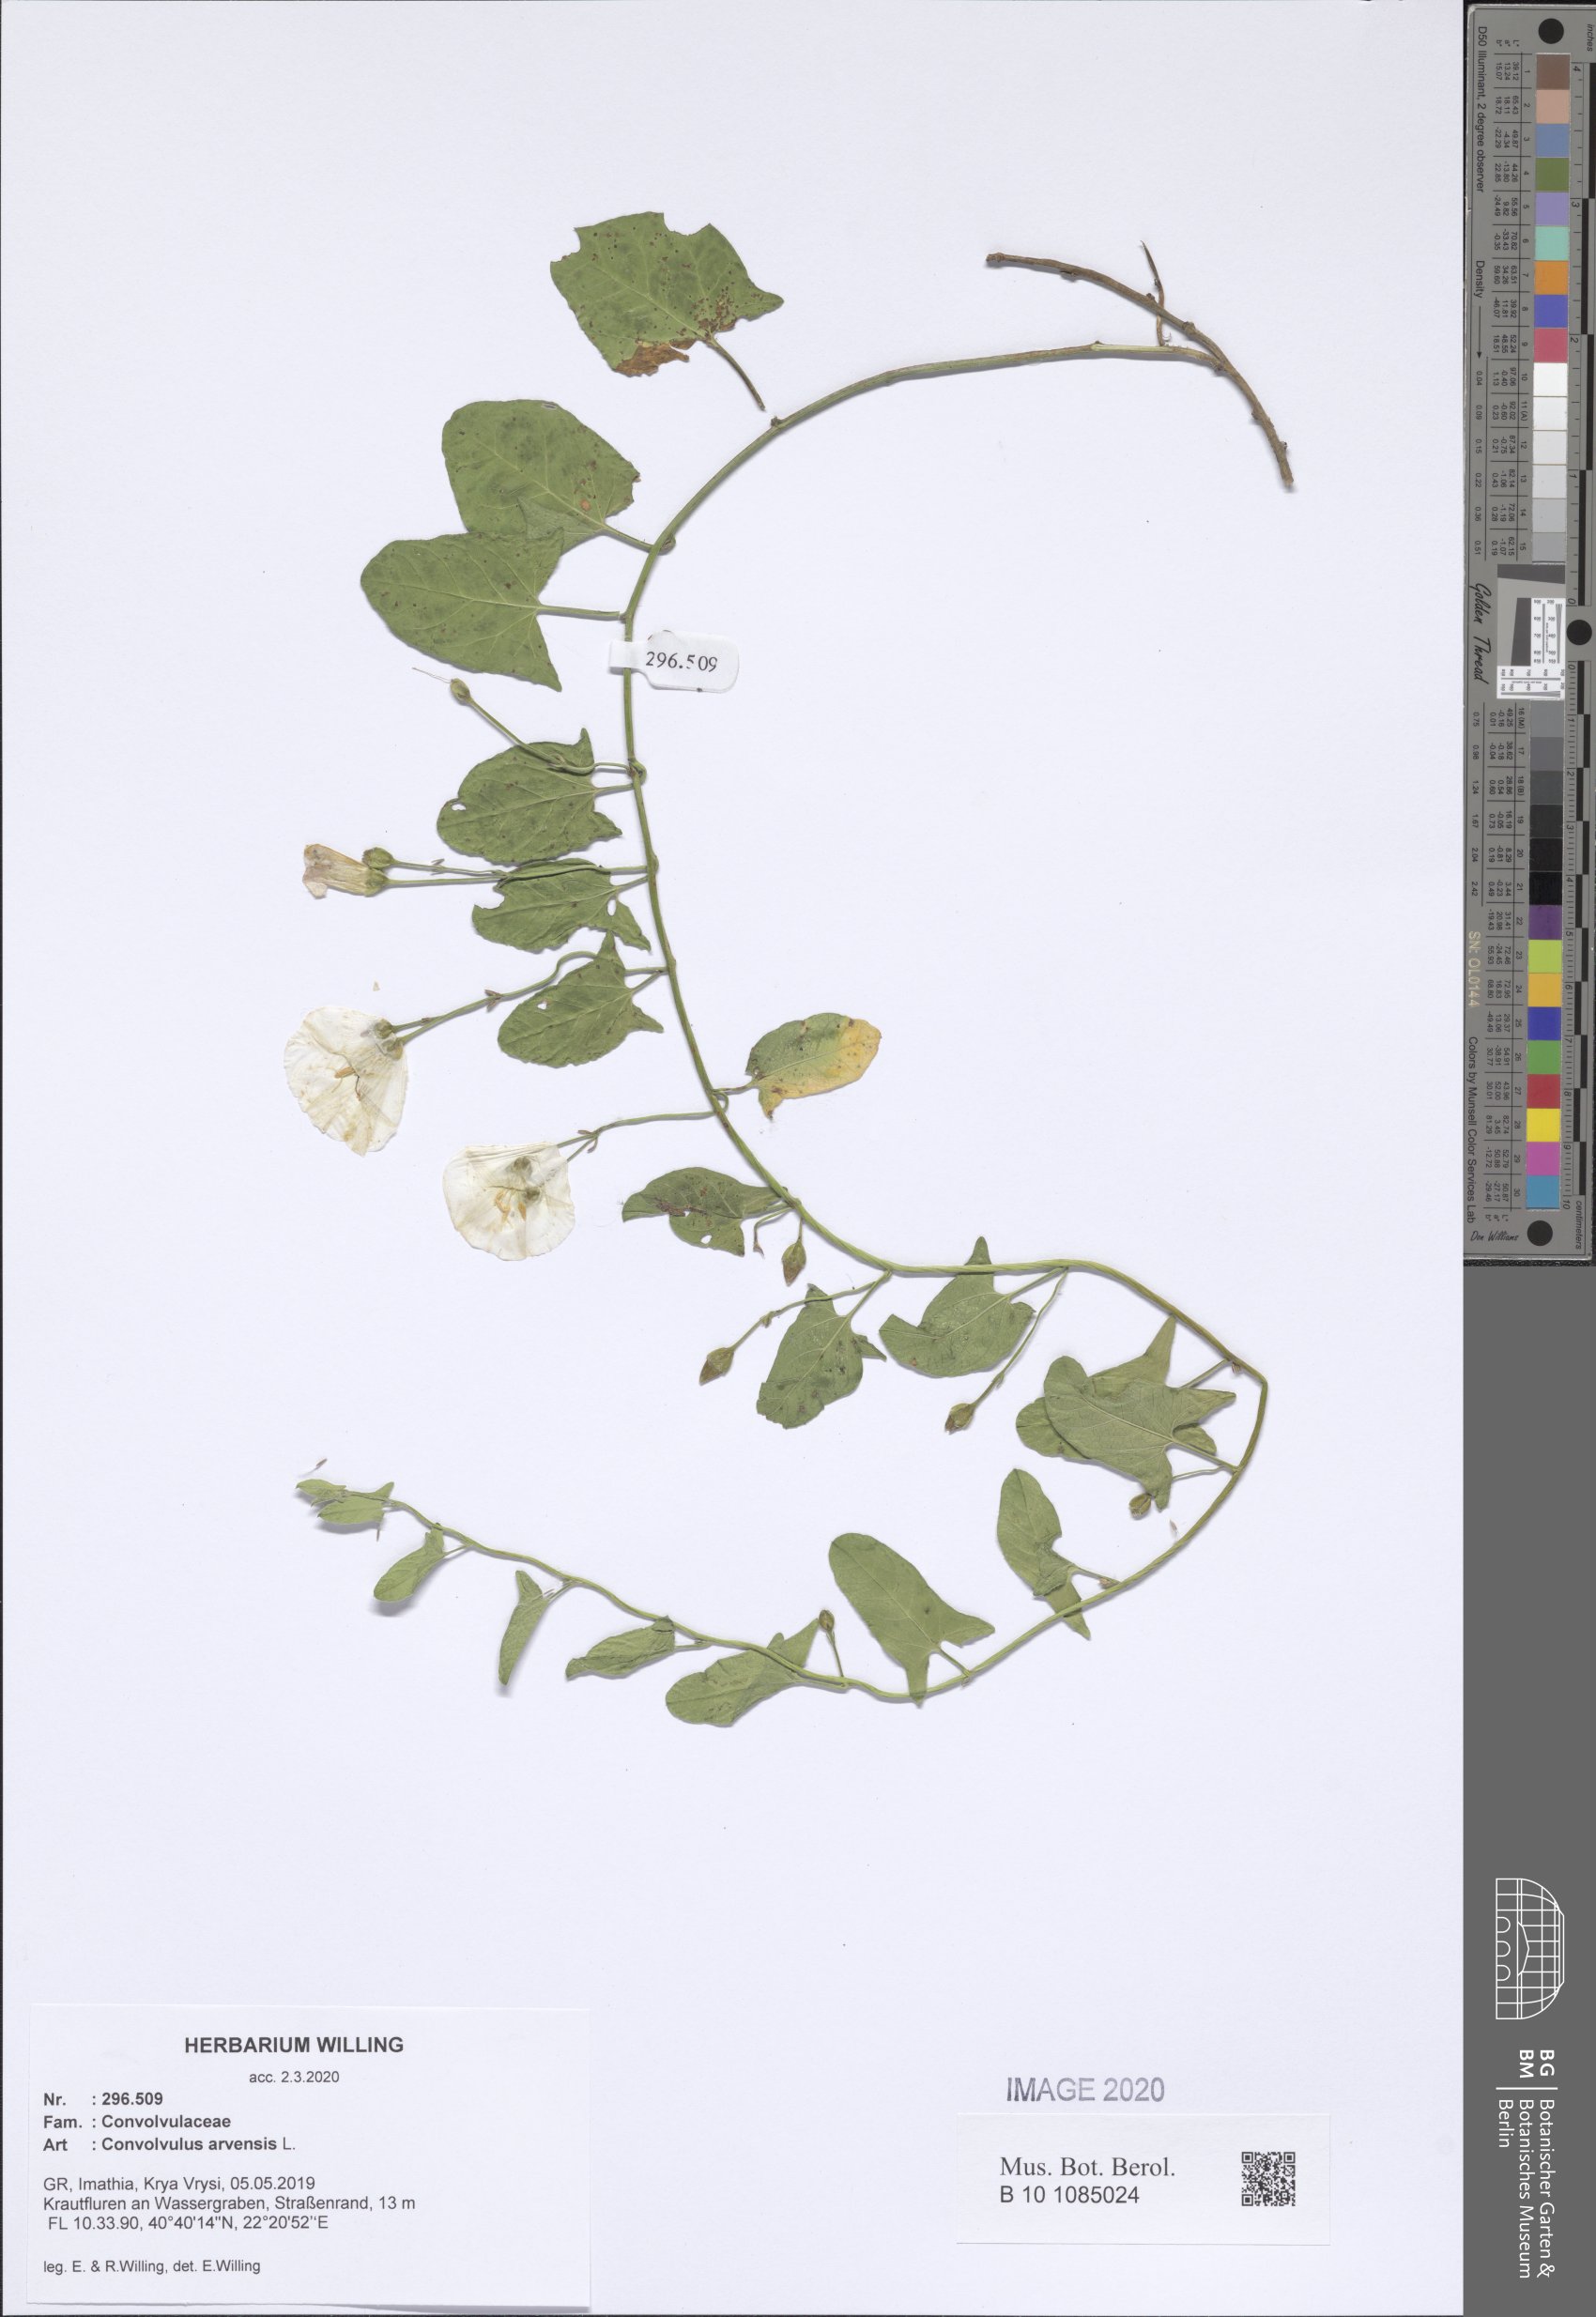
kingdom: Plantae
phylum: Tracheophyta
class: Magnoliopsida
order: Solanales
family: Convolvulaceae
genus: Convolvulus
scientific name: Convolvulus arvensis
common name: Field bindweed
